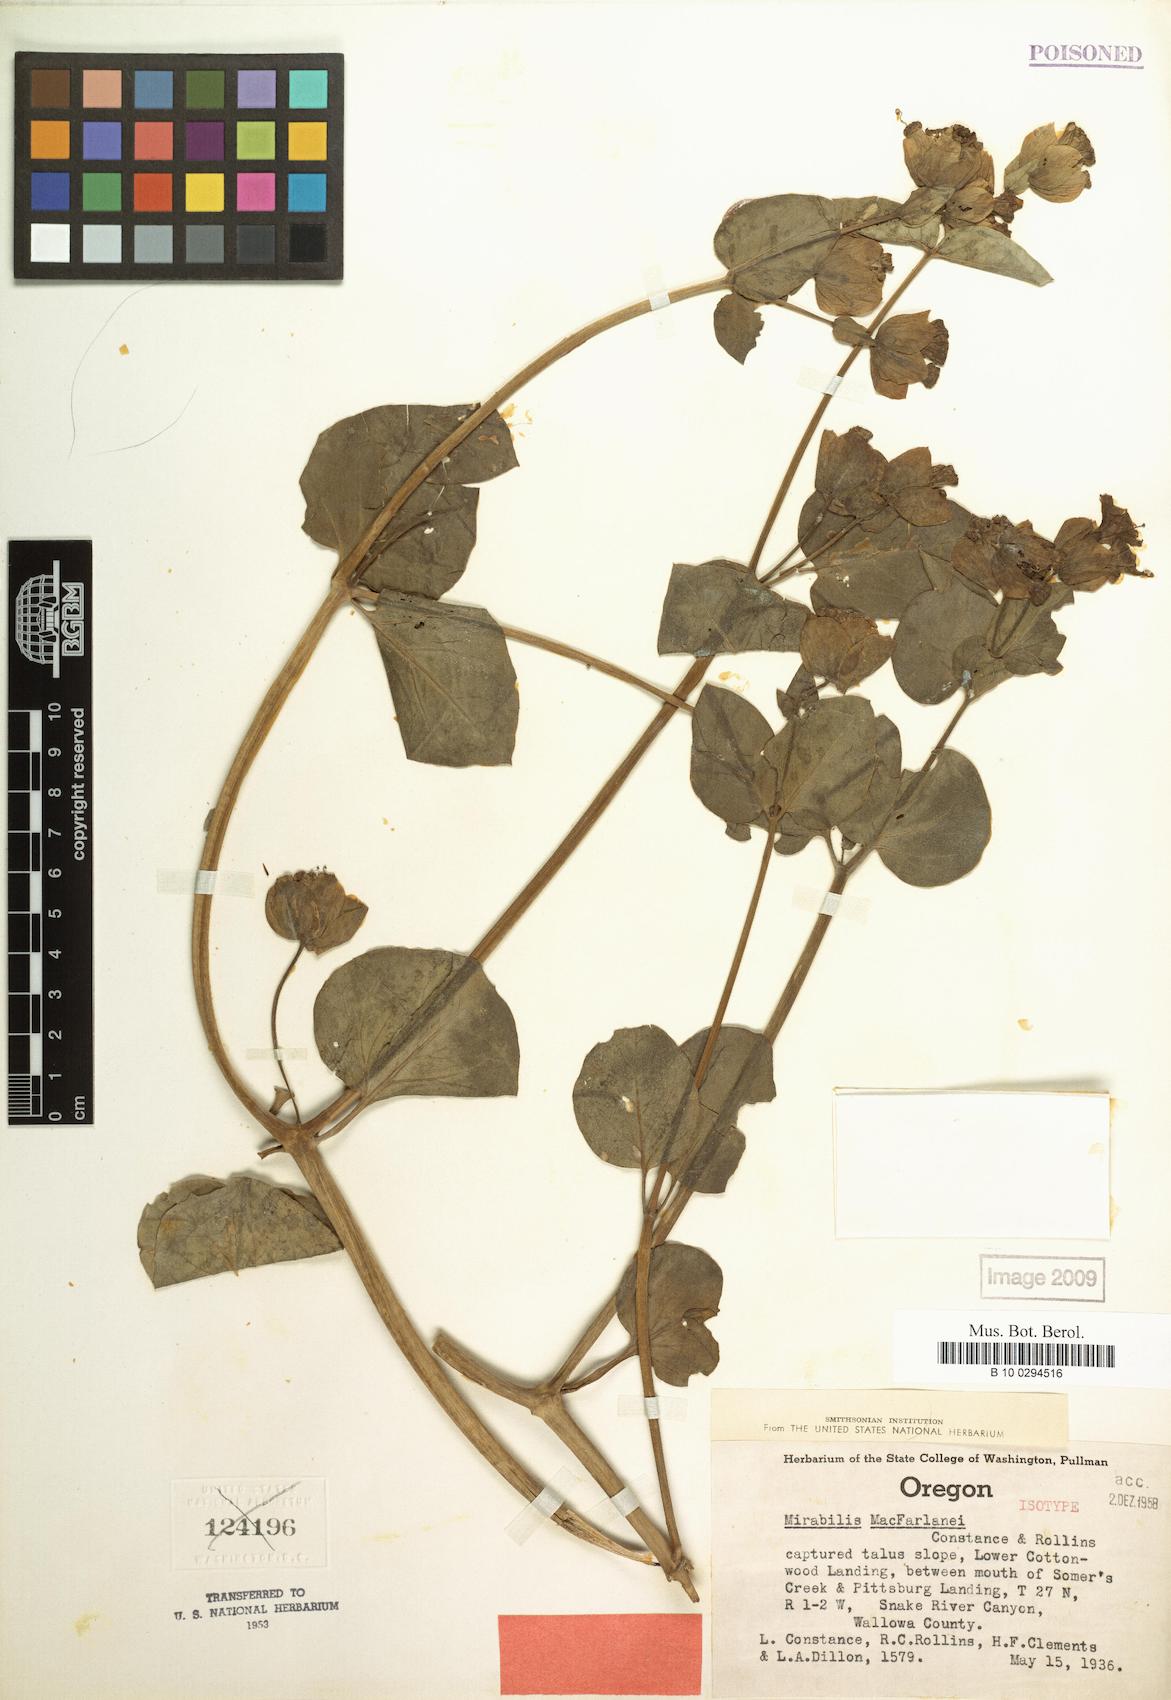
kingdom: Plantae
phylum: Tracheophyta
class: Magnoliopsida
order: Caryophyllales
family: Nyctaginaceae
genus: Mirabilis
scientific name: Mirabilis macfarlanei
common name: Macfarlane's four-o'clock
